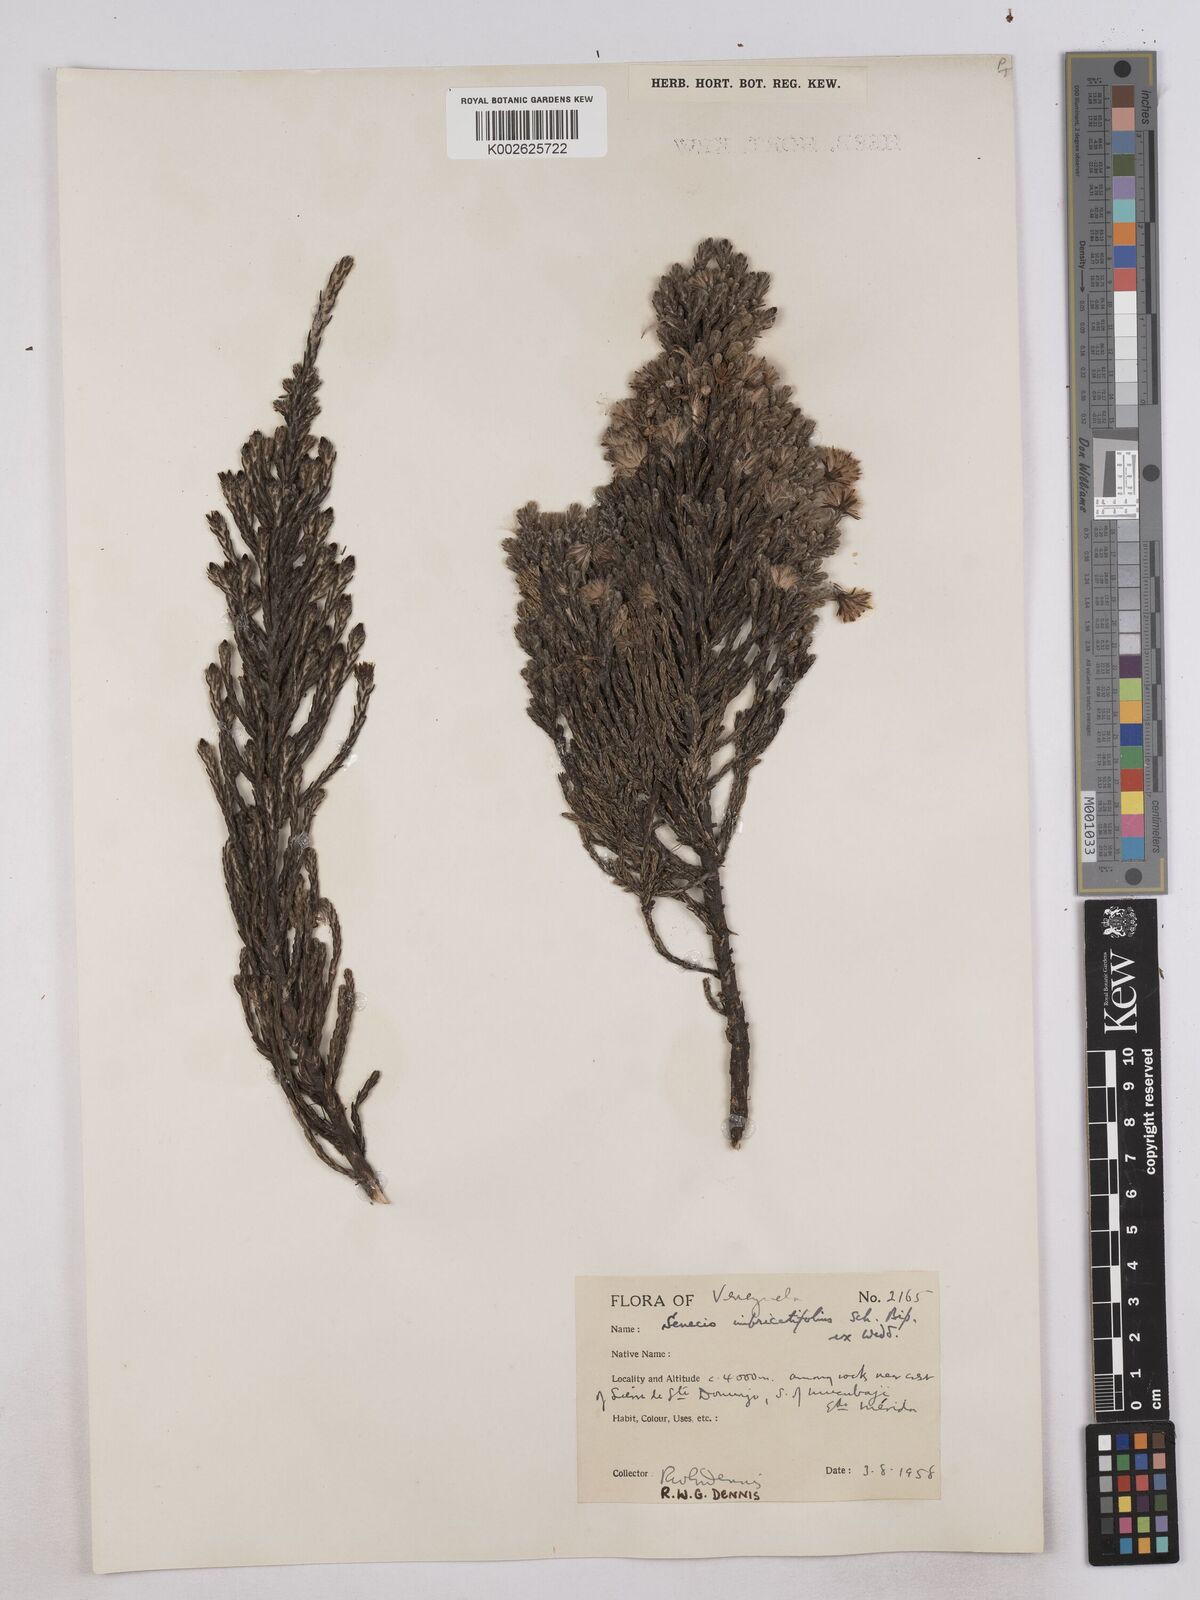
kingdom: Plantae
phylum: Tracheophyta
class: Magnoliopsida
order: Asterales
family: Asteraceae
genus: Monticalia
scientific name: Monticalia imbricatifolia
